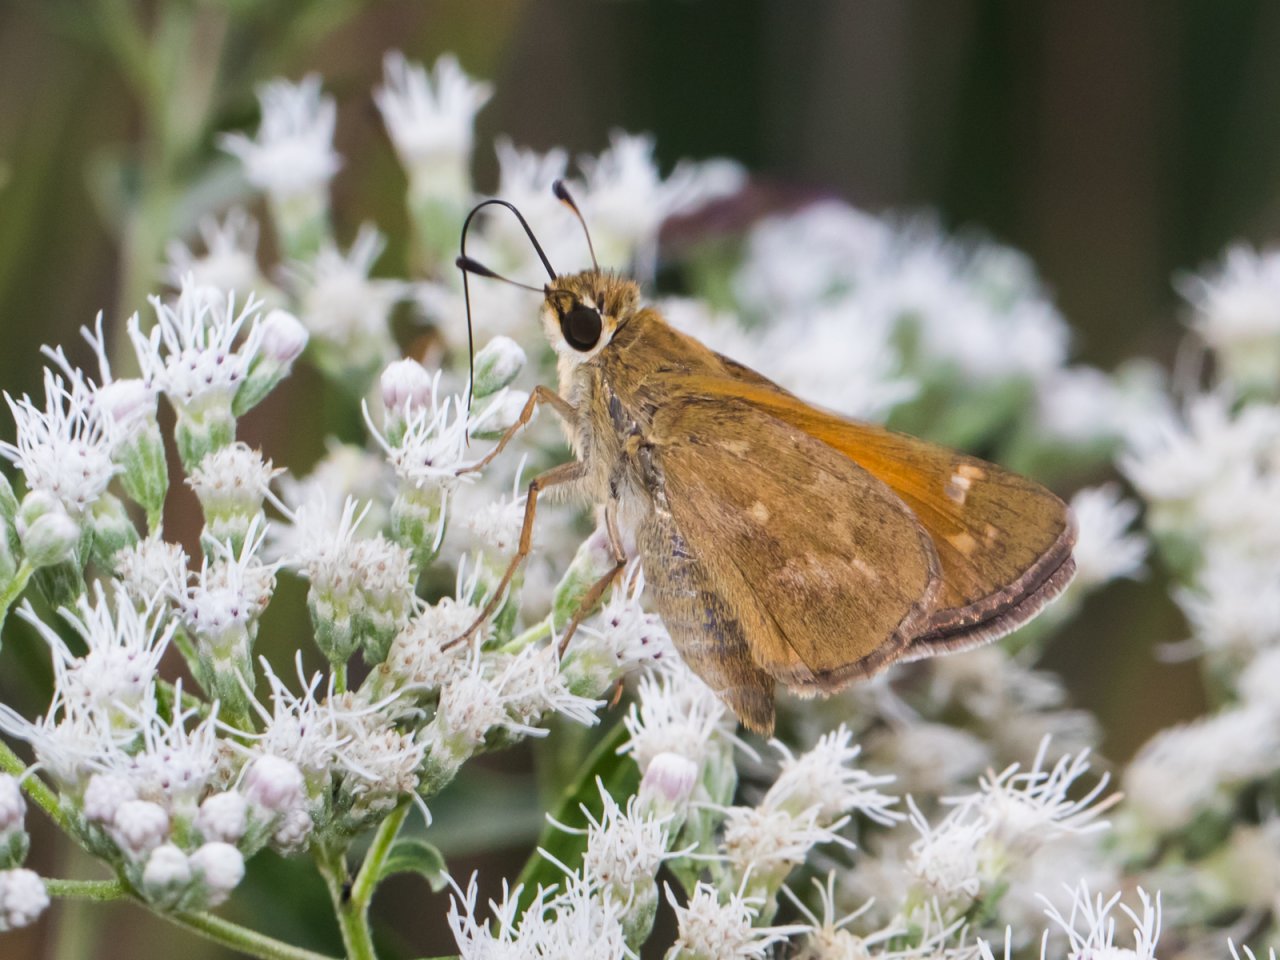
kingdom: Animalia
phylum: Arthropoda
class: Insecta
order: Lepidoptera
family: Hesperiidae
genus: Atalopedes
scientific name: Atalopedes campestris
